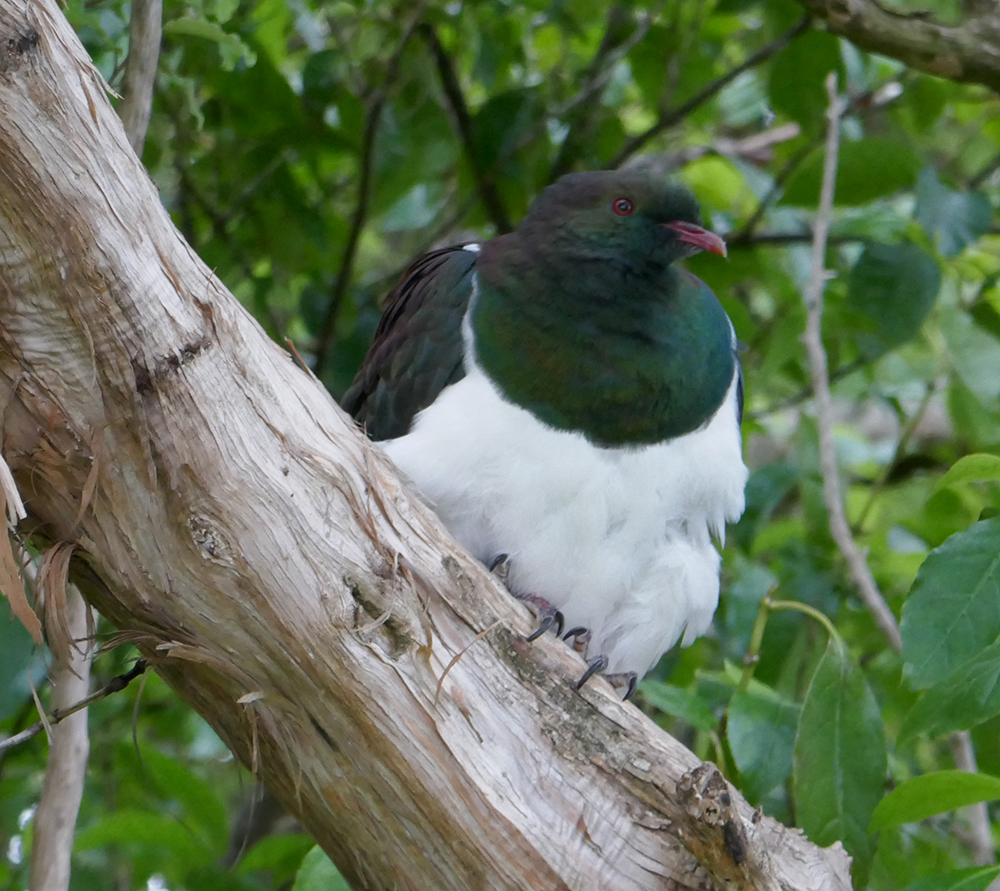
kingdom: Animalia
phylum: Chordata
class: Aves
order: Columbiformes
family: Columbidae
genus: Hemiphaga
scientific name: Hemiphaga novaeseelandiae
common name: New zealand pigeon
